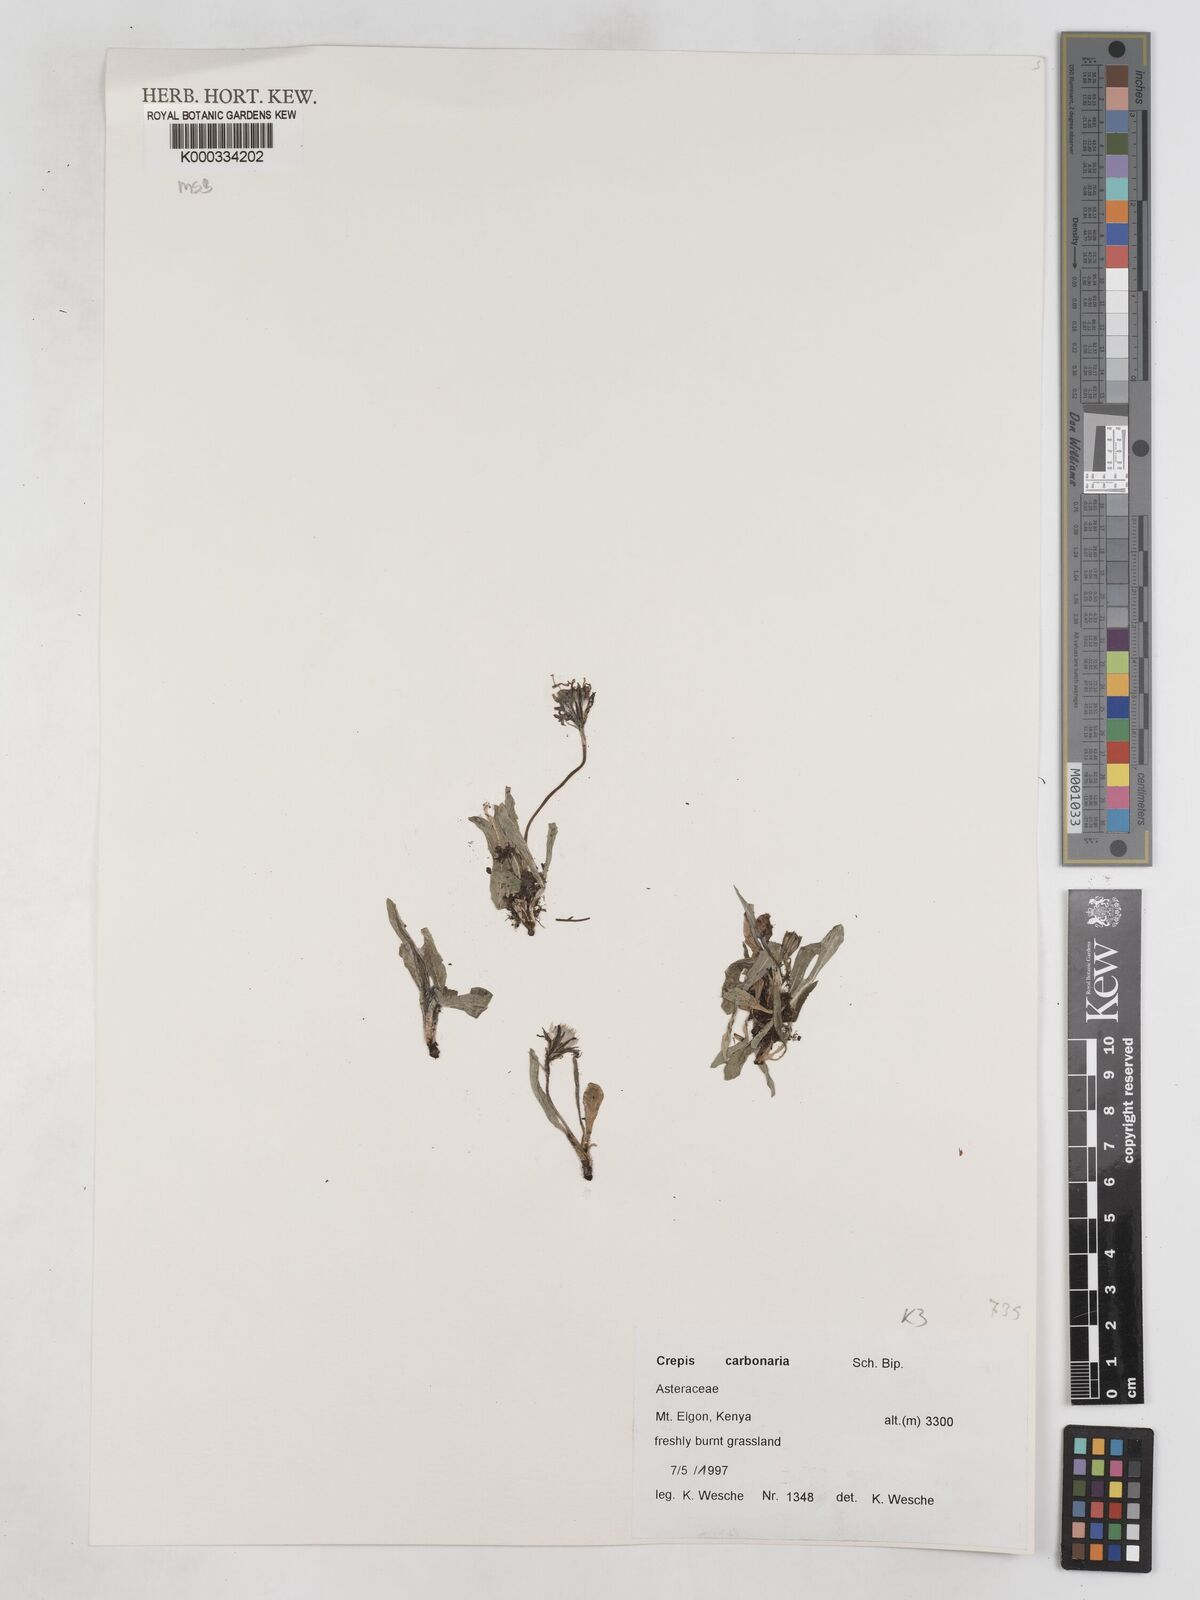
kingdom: Plantae
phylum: Tracheophyta
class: Magnoliopsida
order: Asterales
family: Asteraceae
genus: Crepis
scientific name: Crepis carbonaria
